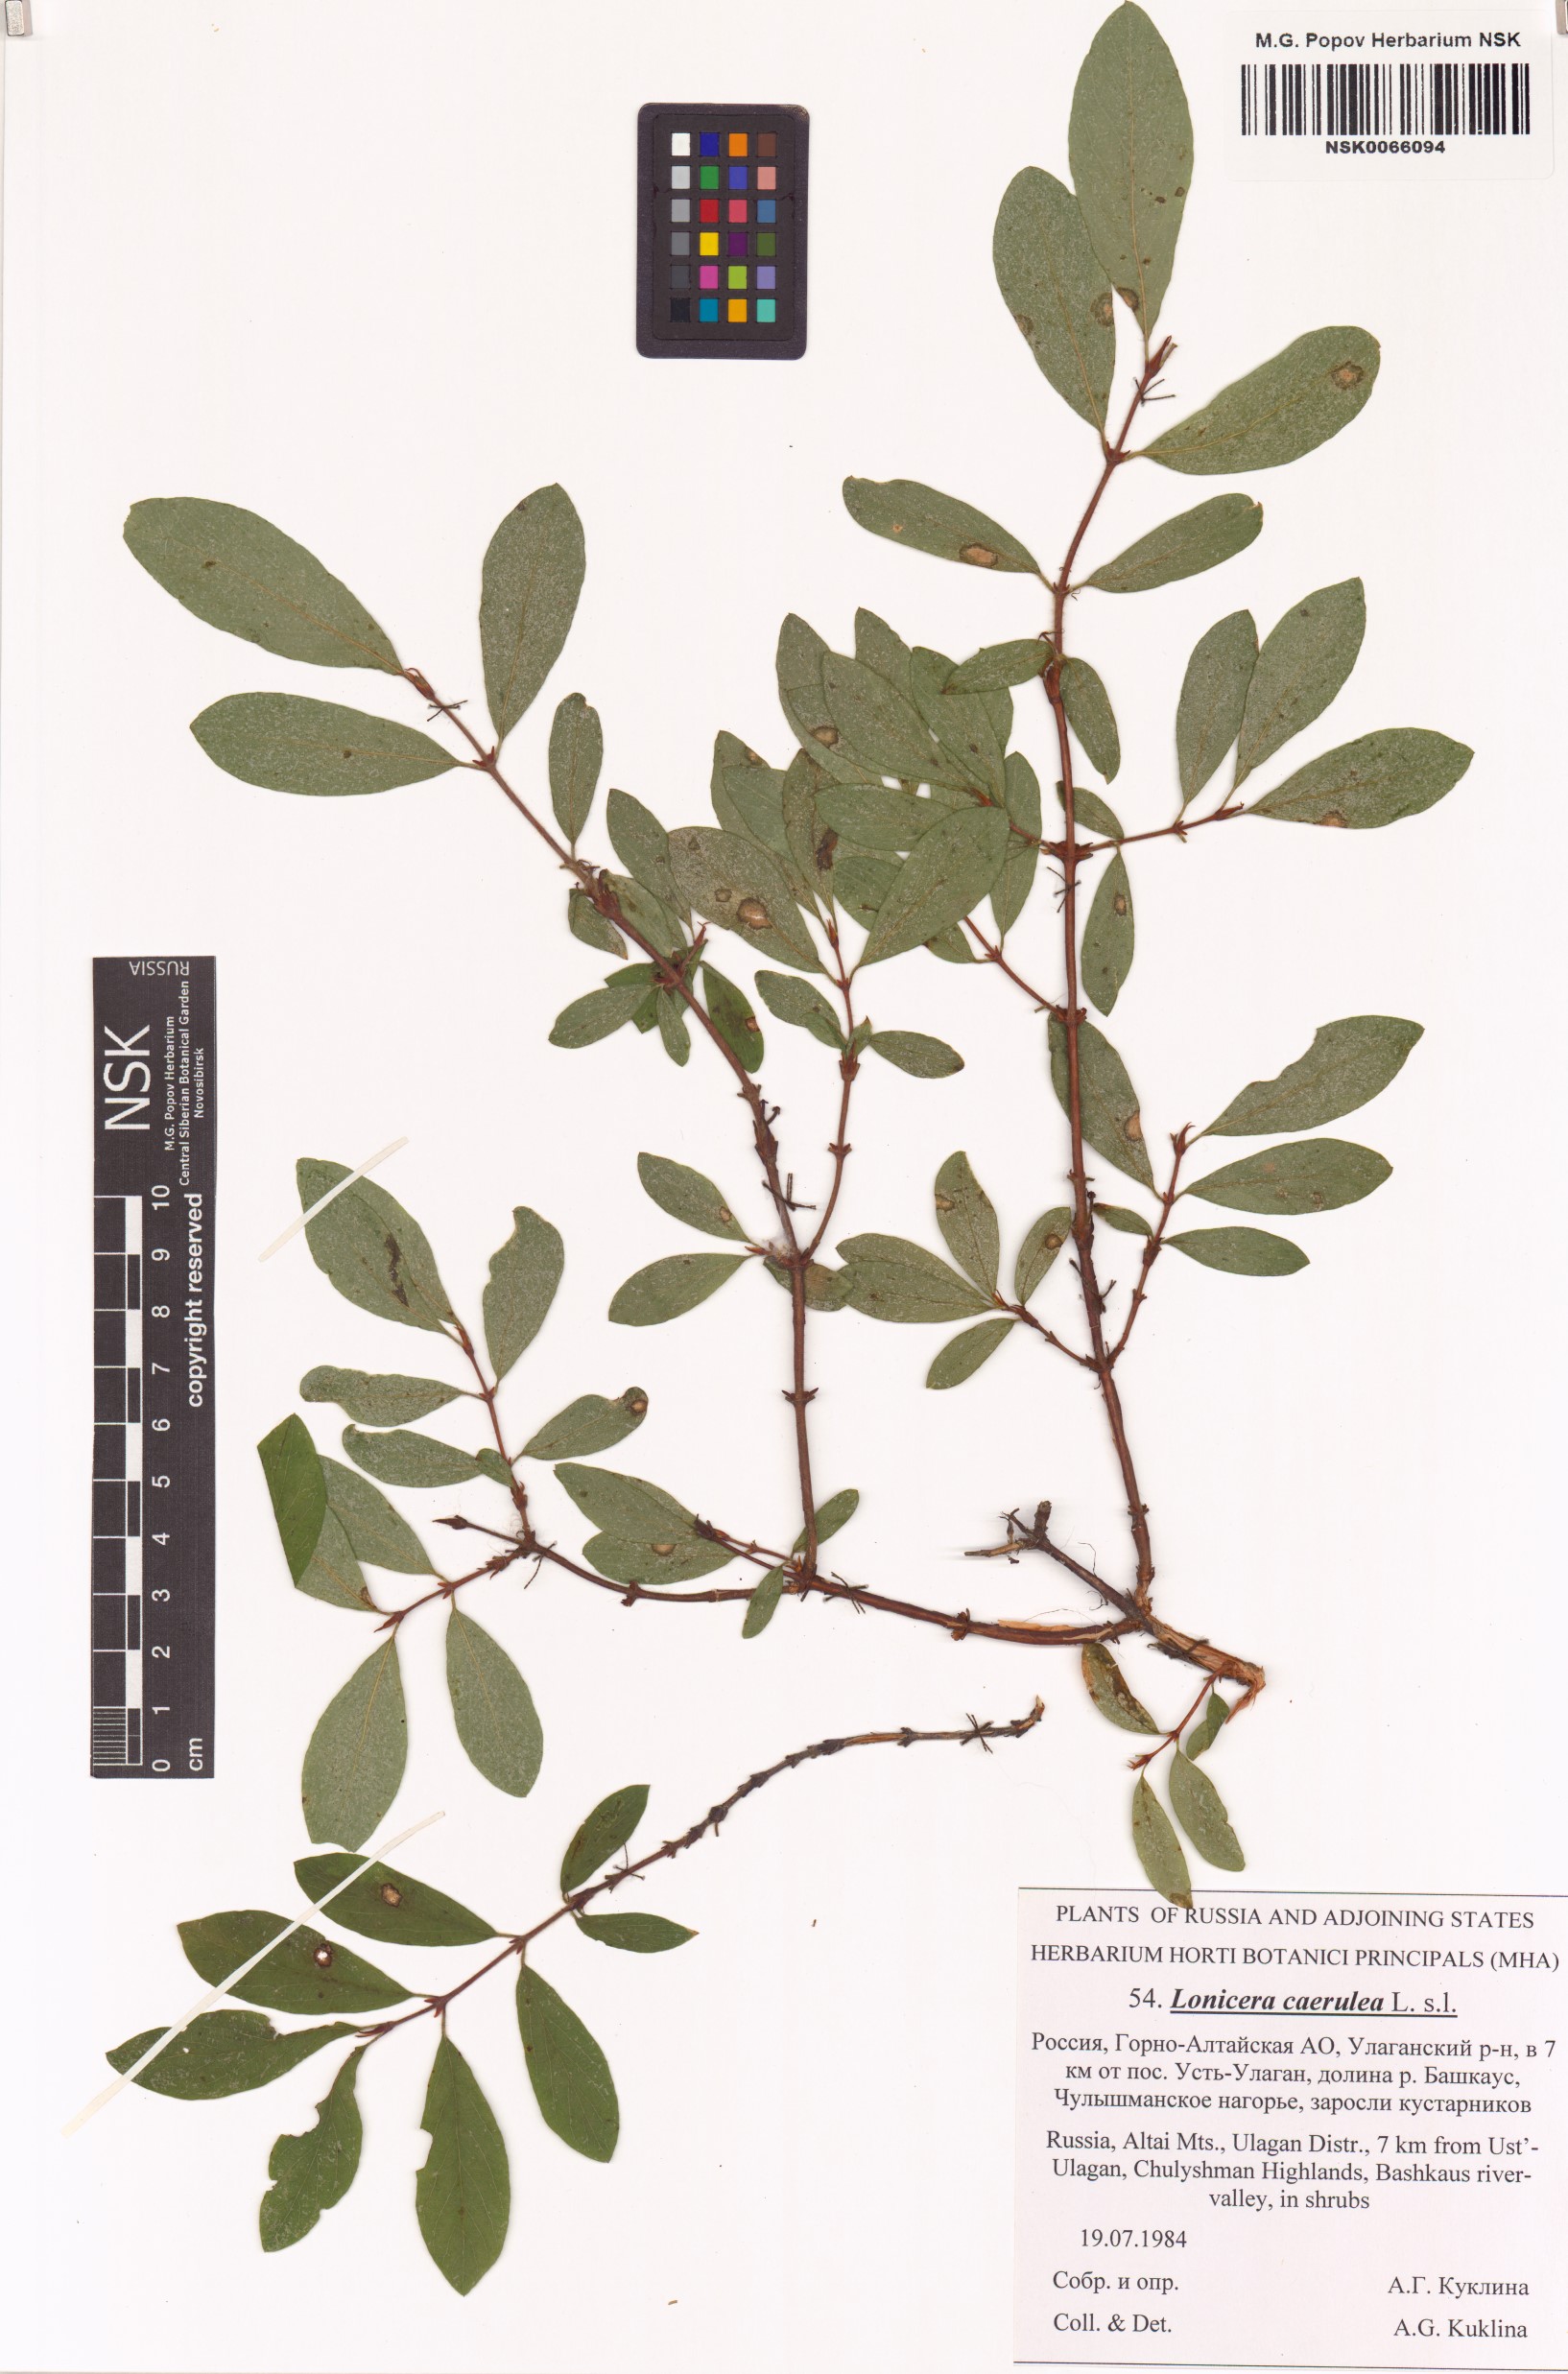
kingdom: Plantae
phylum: Tracheophyta
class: Magnoliopsida
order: Dipsacales
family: Caprifoliaceae
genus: Lonicera
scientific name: Lonicera caerulea
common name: Blue honeysuckle
